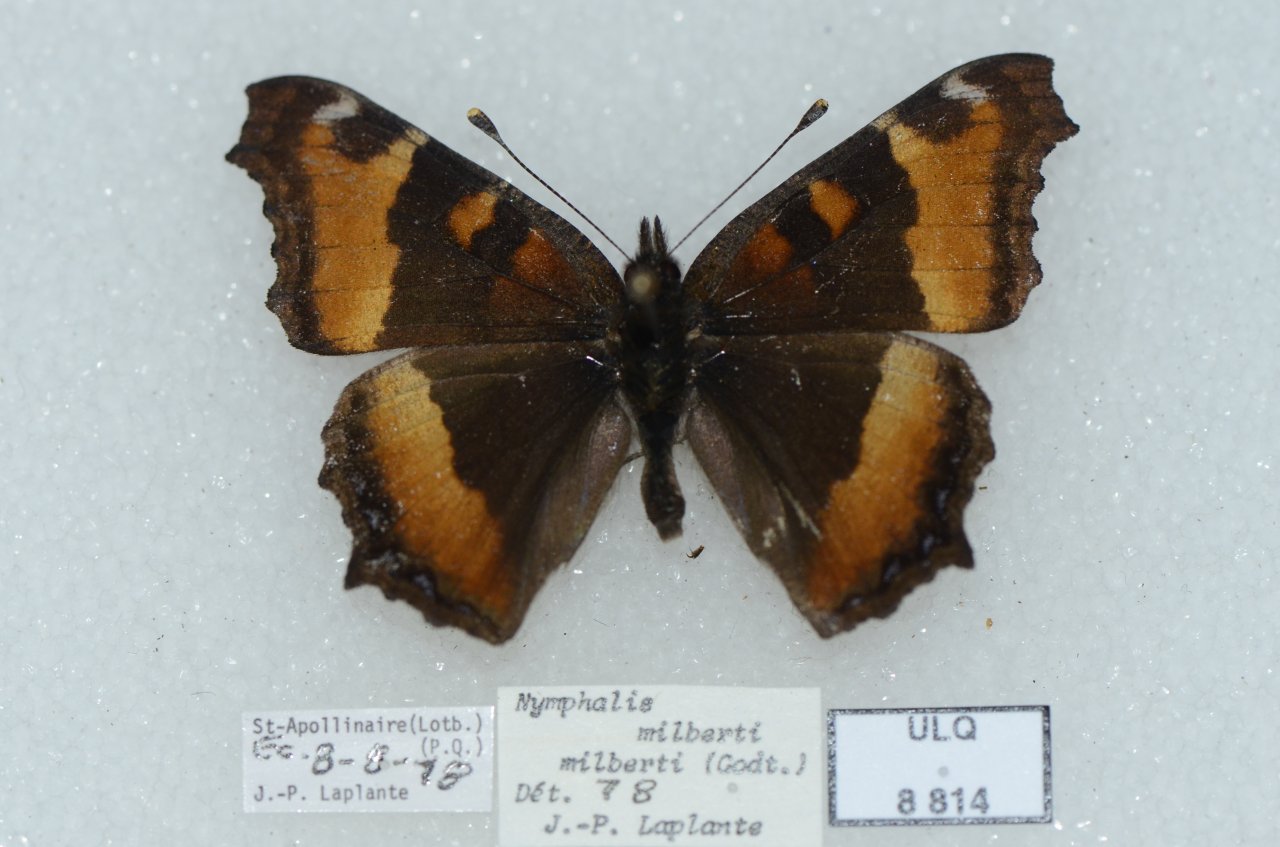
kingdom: Animalia
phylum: Arthropoda
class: Insecta
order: Lepidoptera
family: Nymphalidae
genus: Aglais
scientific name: Aglais milberti
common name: Milbert's Tortoiseshell
